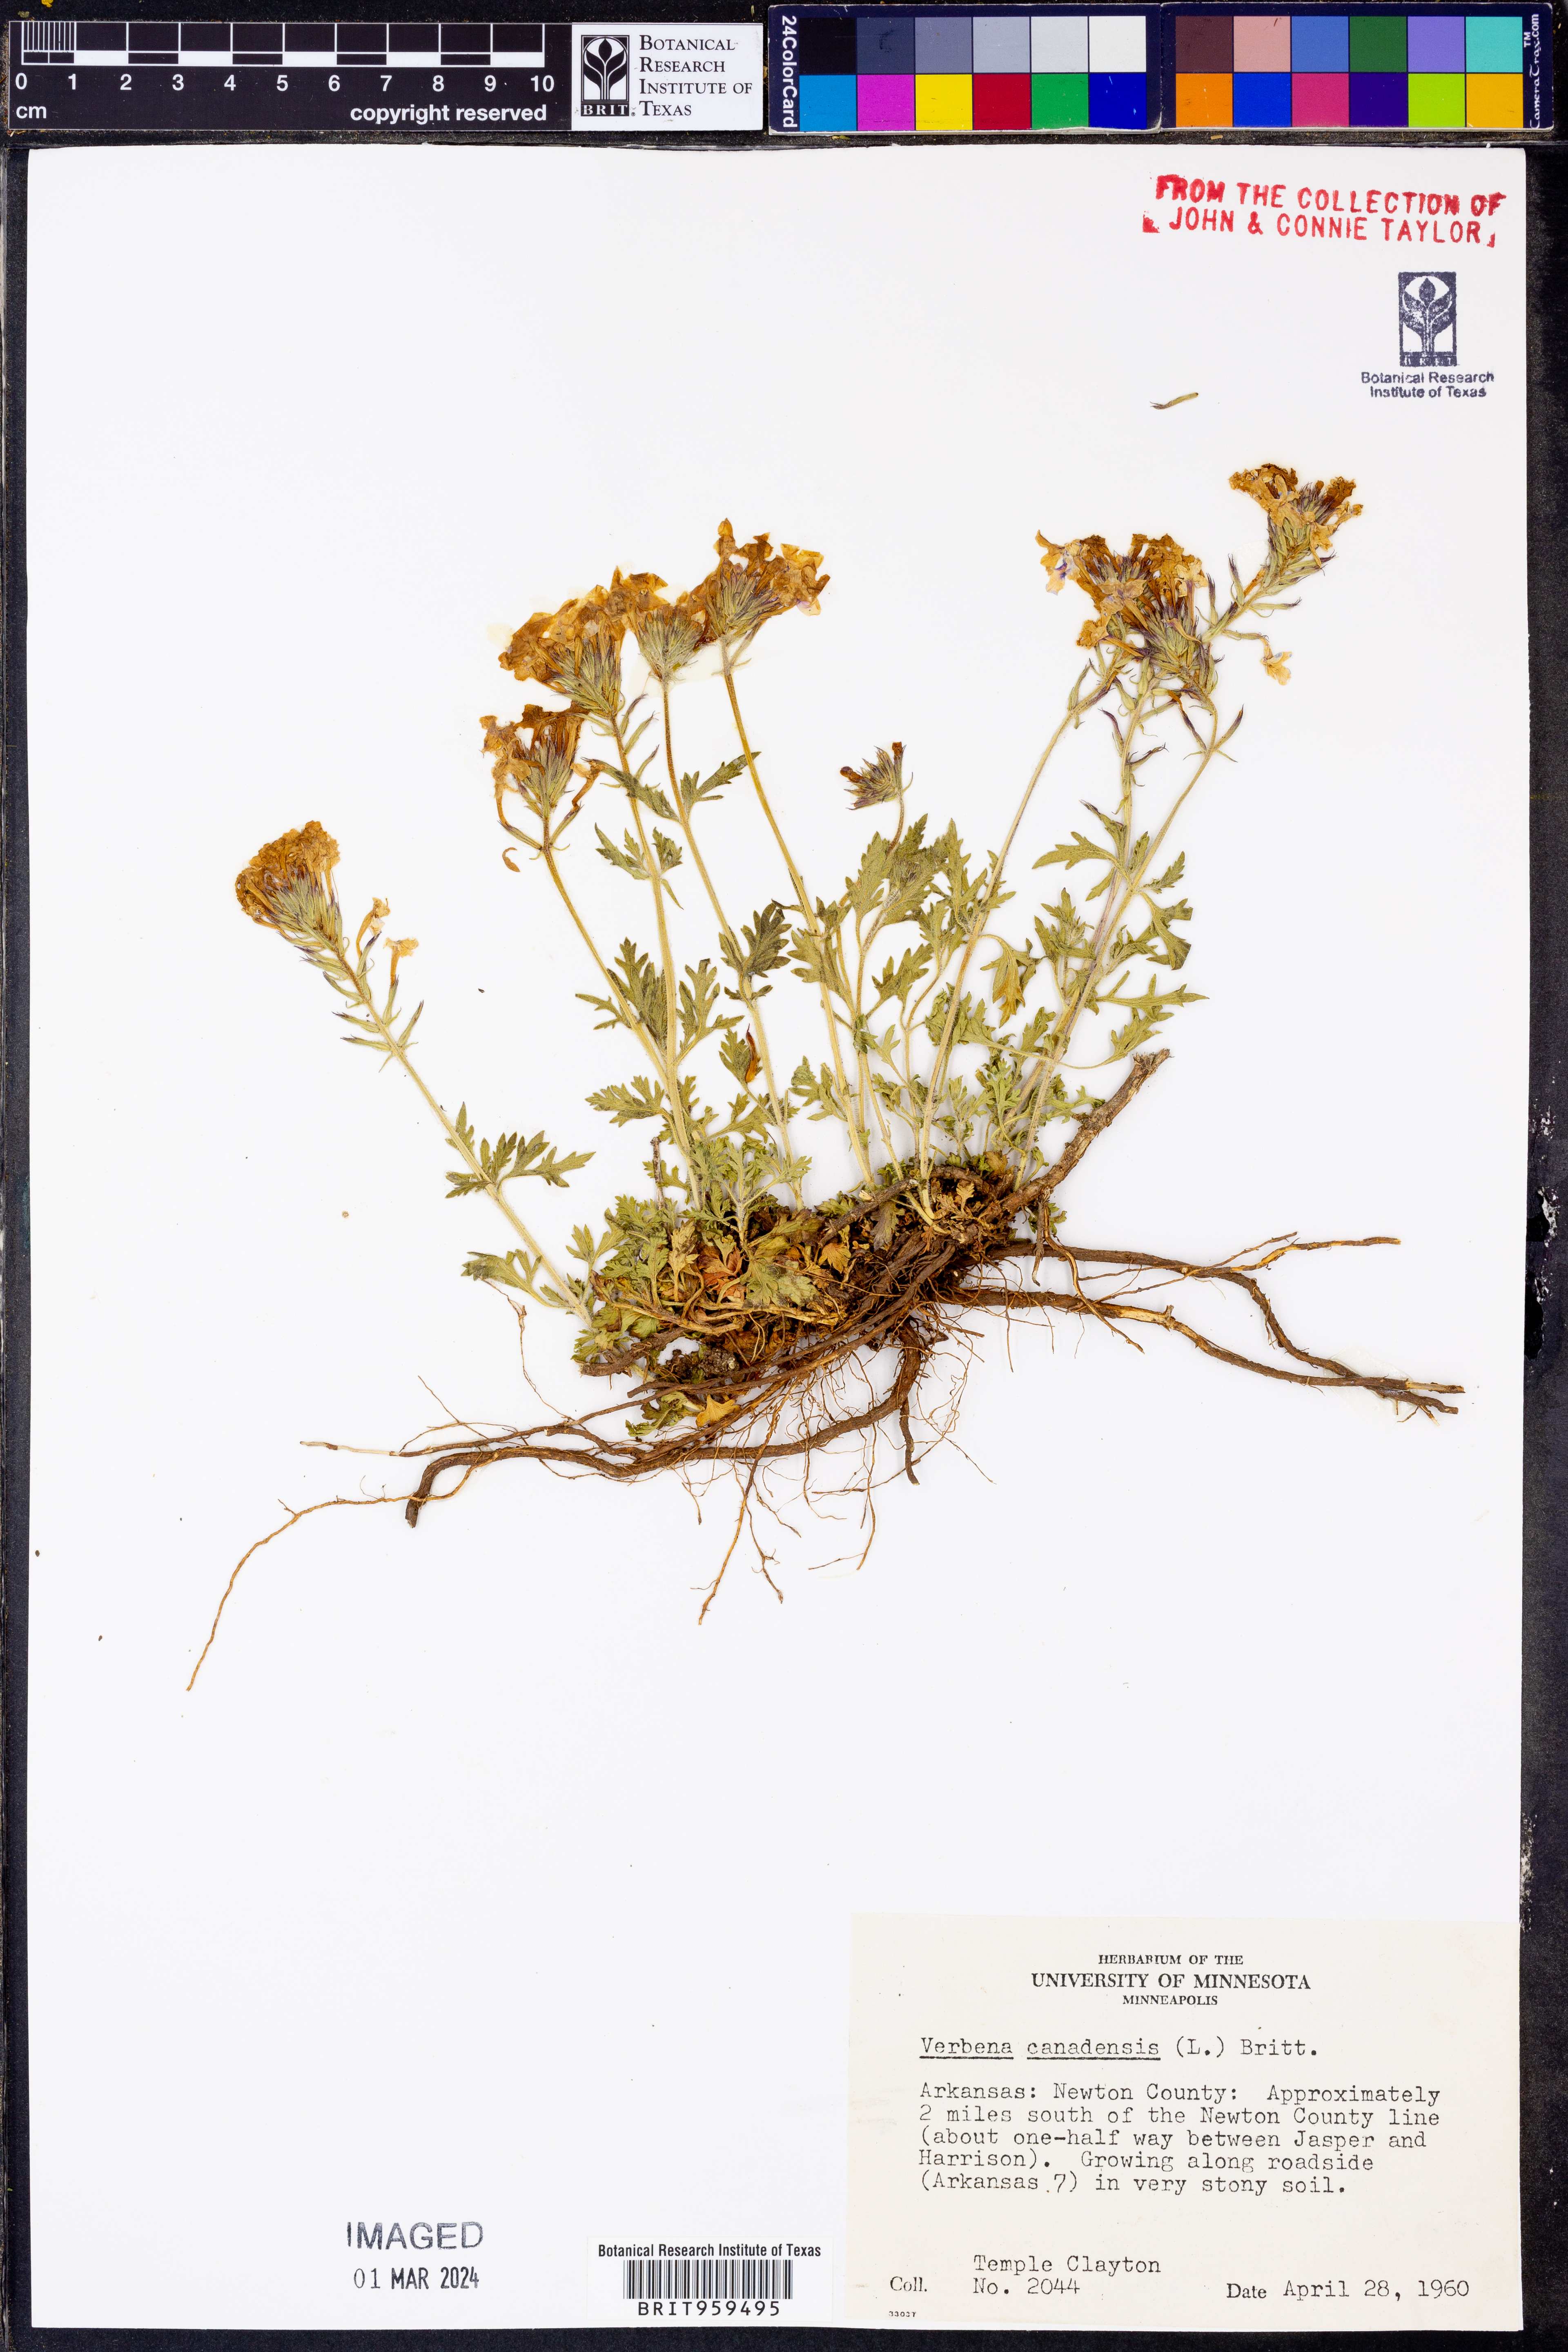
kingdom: Plantae
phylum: Tracheophyta
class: Magnoliopsida
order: Lamiales
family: Verbenaceae
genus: Verbena
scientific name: Verbena canadensis
